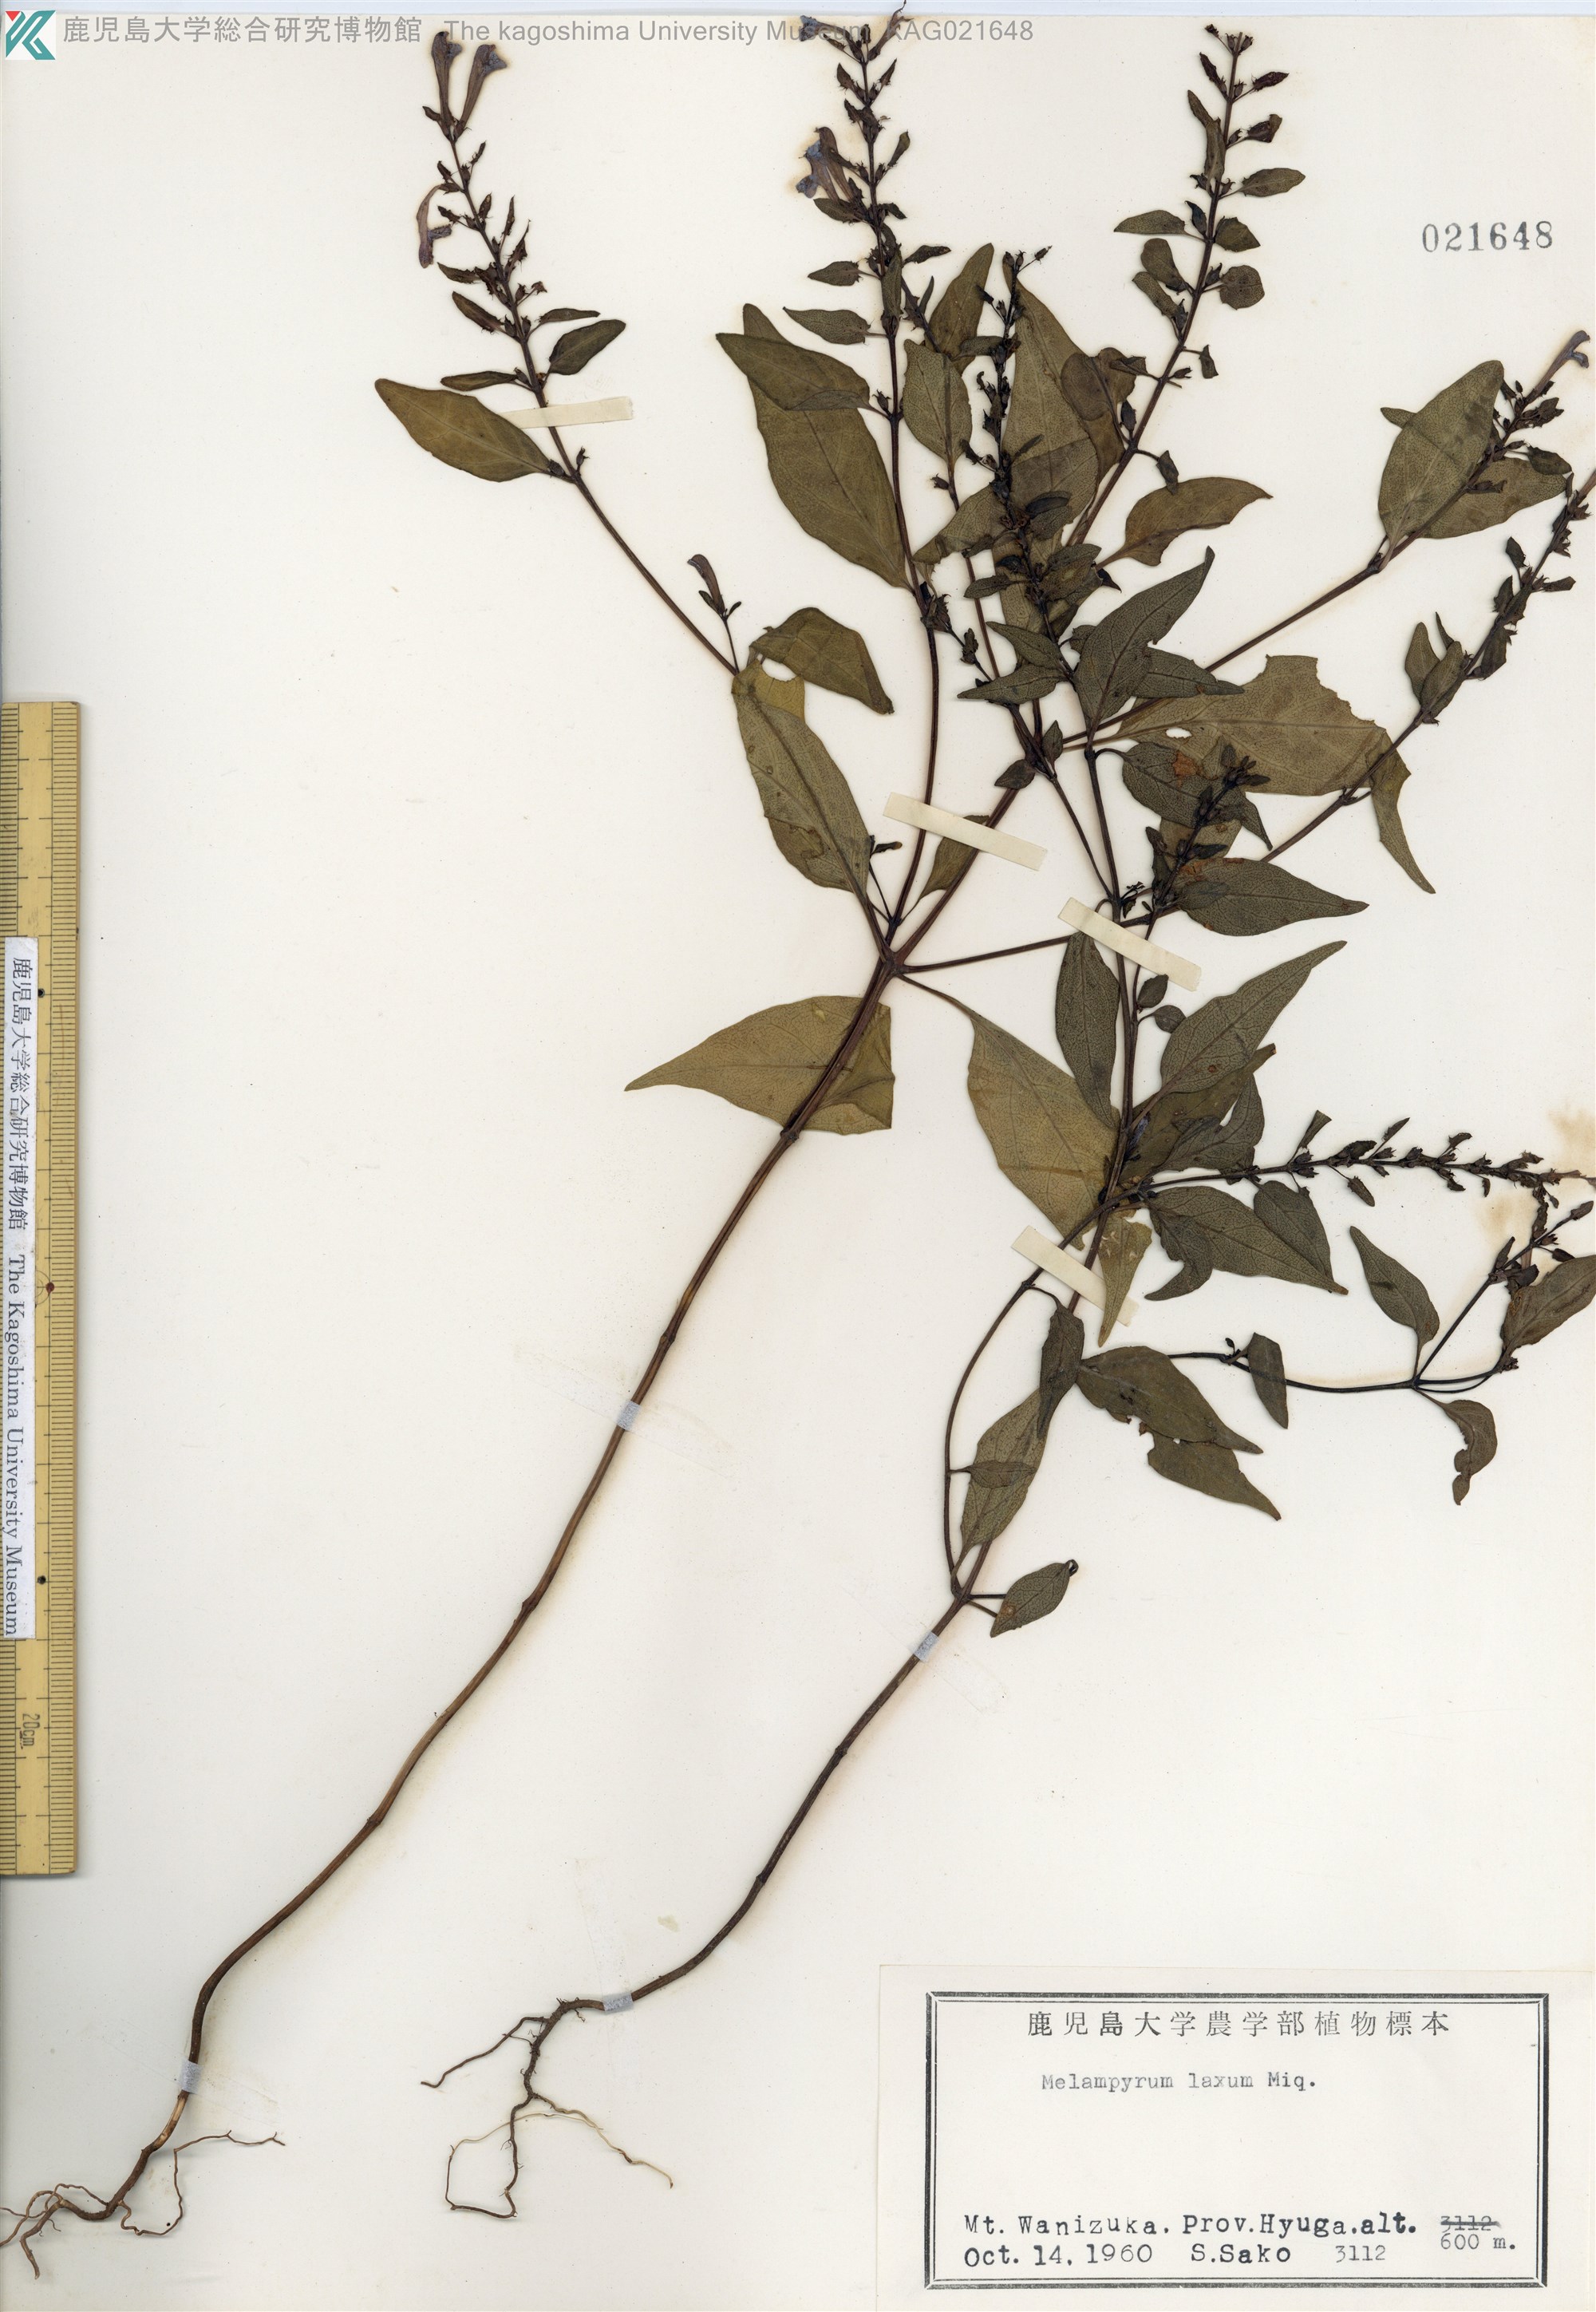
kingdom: Plantae
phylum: Tracheophyta
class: Magnoliopsida
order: Lamiales
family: Orobanchaceae
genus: Melampyrum
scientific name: Melampyrum laxum
